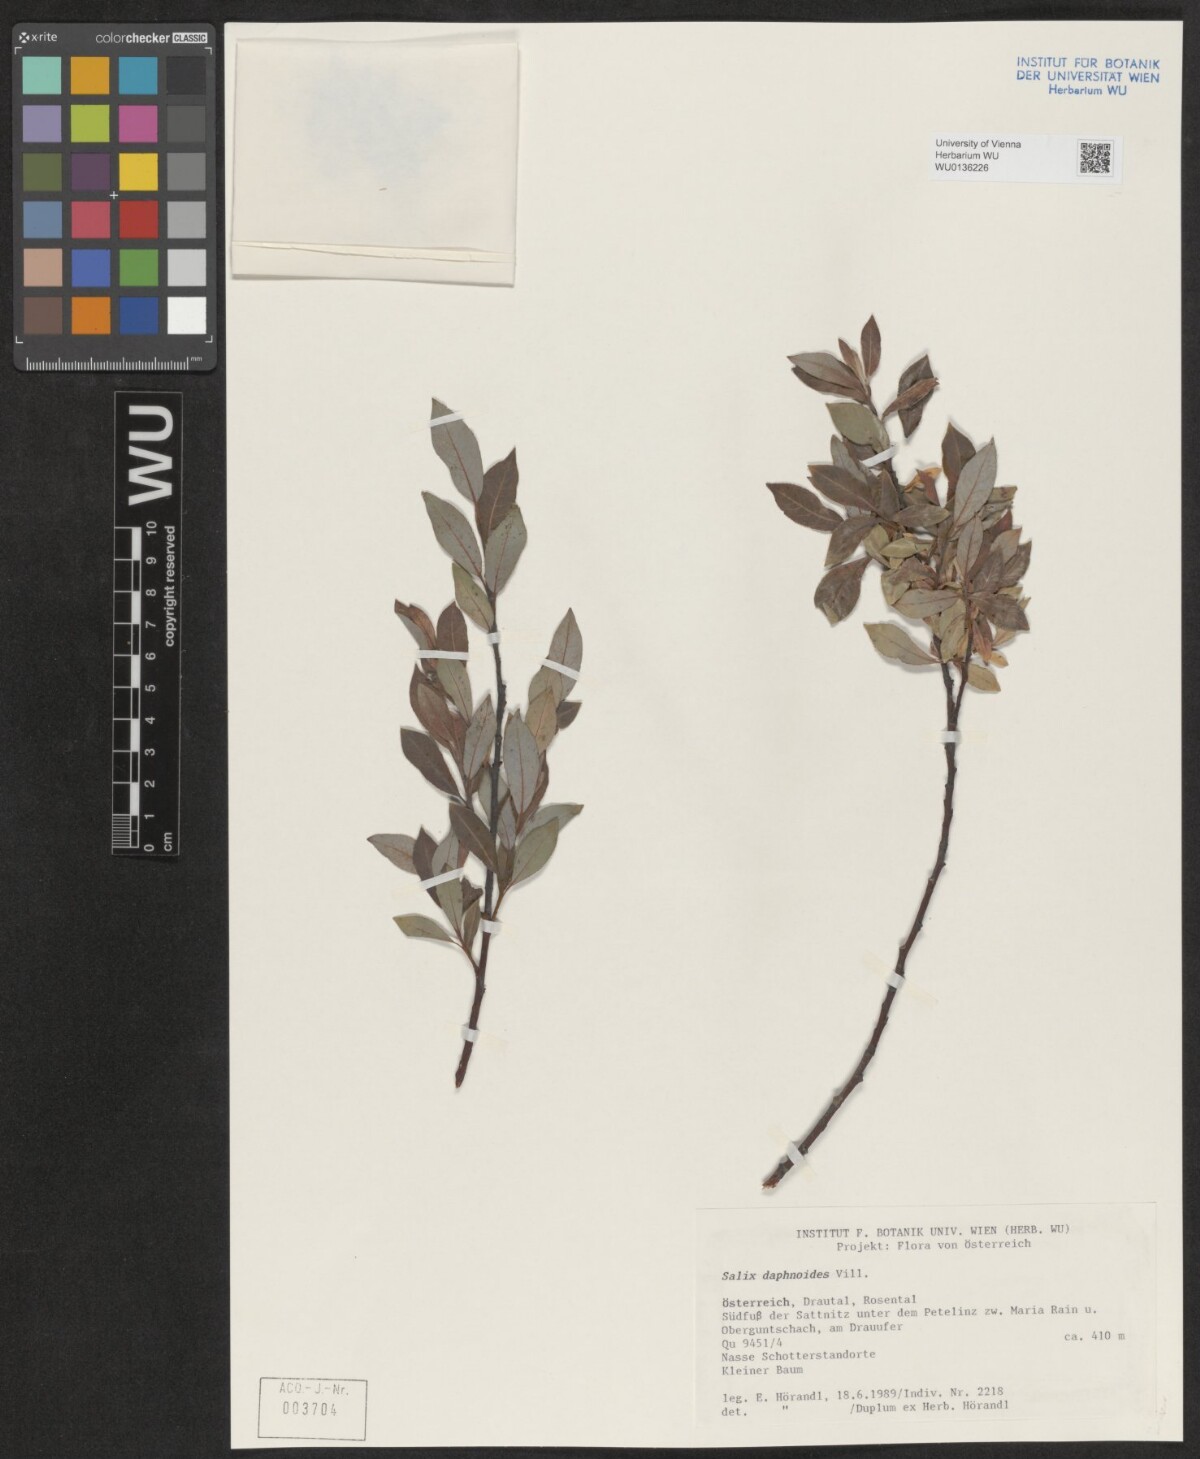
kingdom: Plantae
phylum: Tracheophyta
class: Magnoliopsida
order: Malpighiales
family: Salicaceae
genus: Salix
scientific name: Salix daphnoides
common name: European violet-willow
